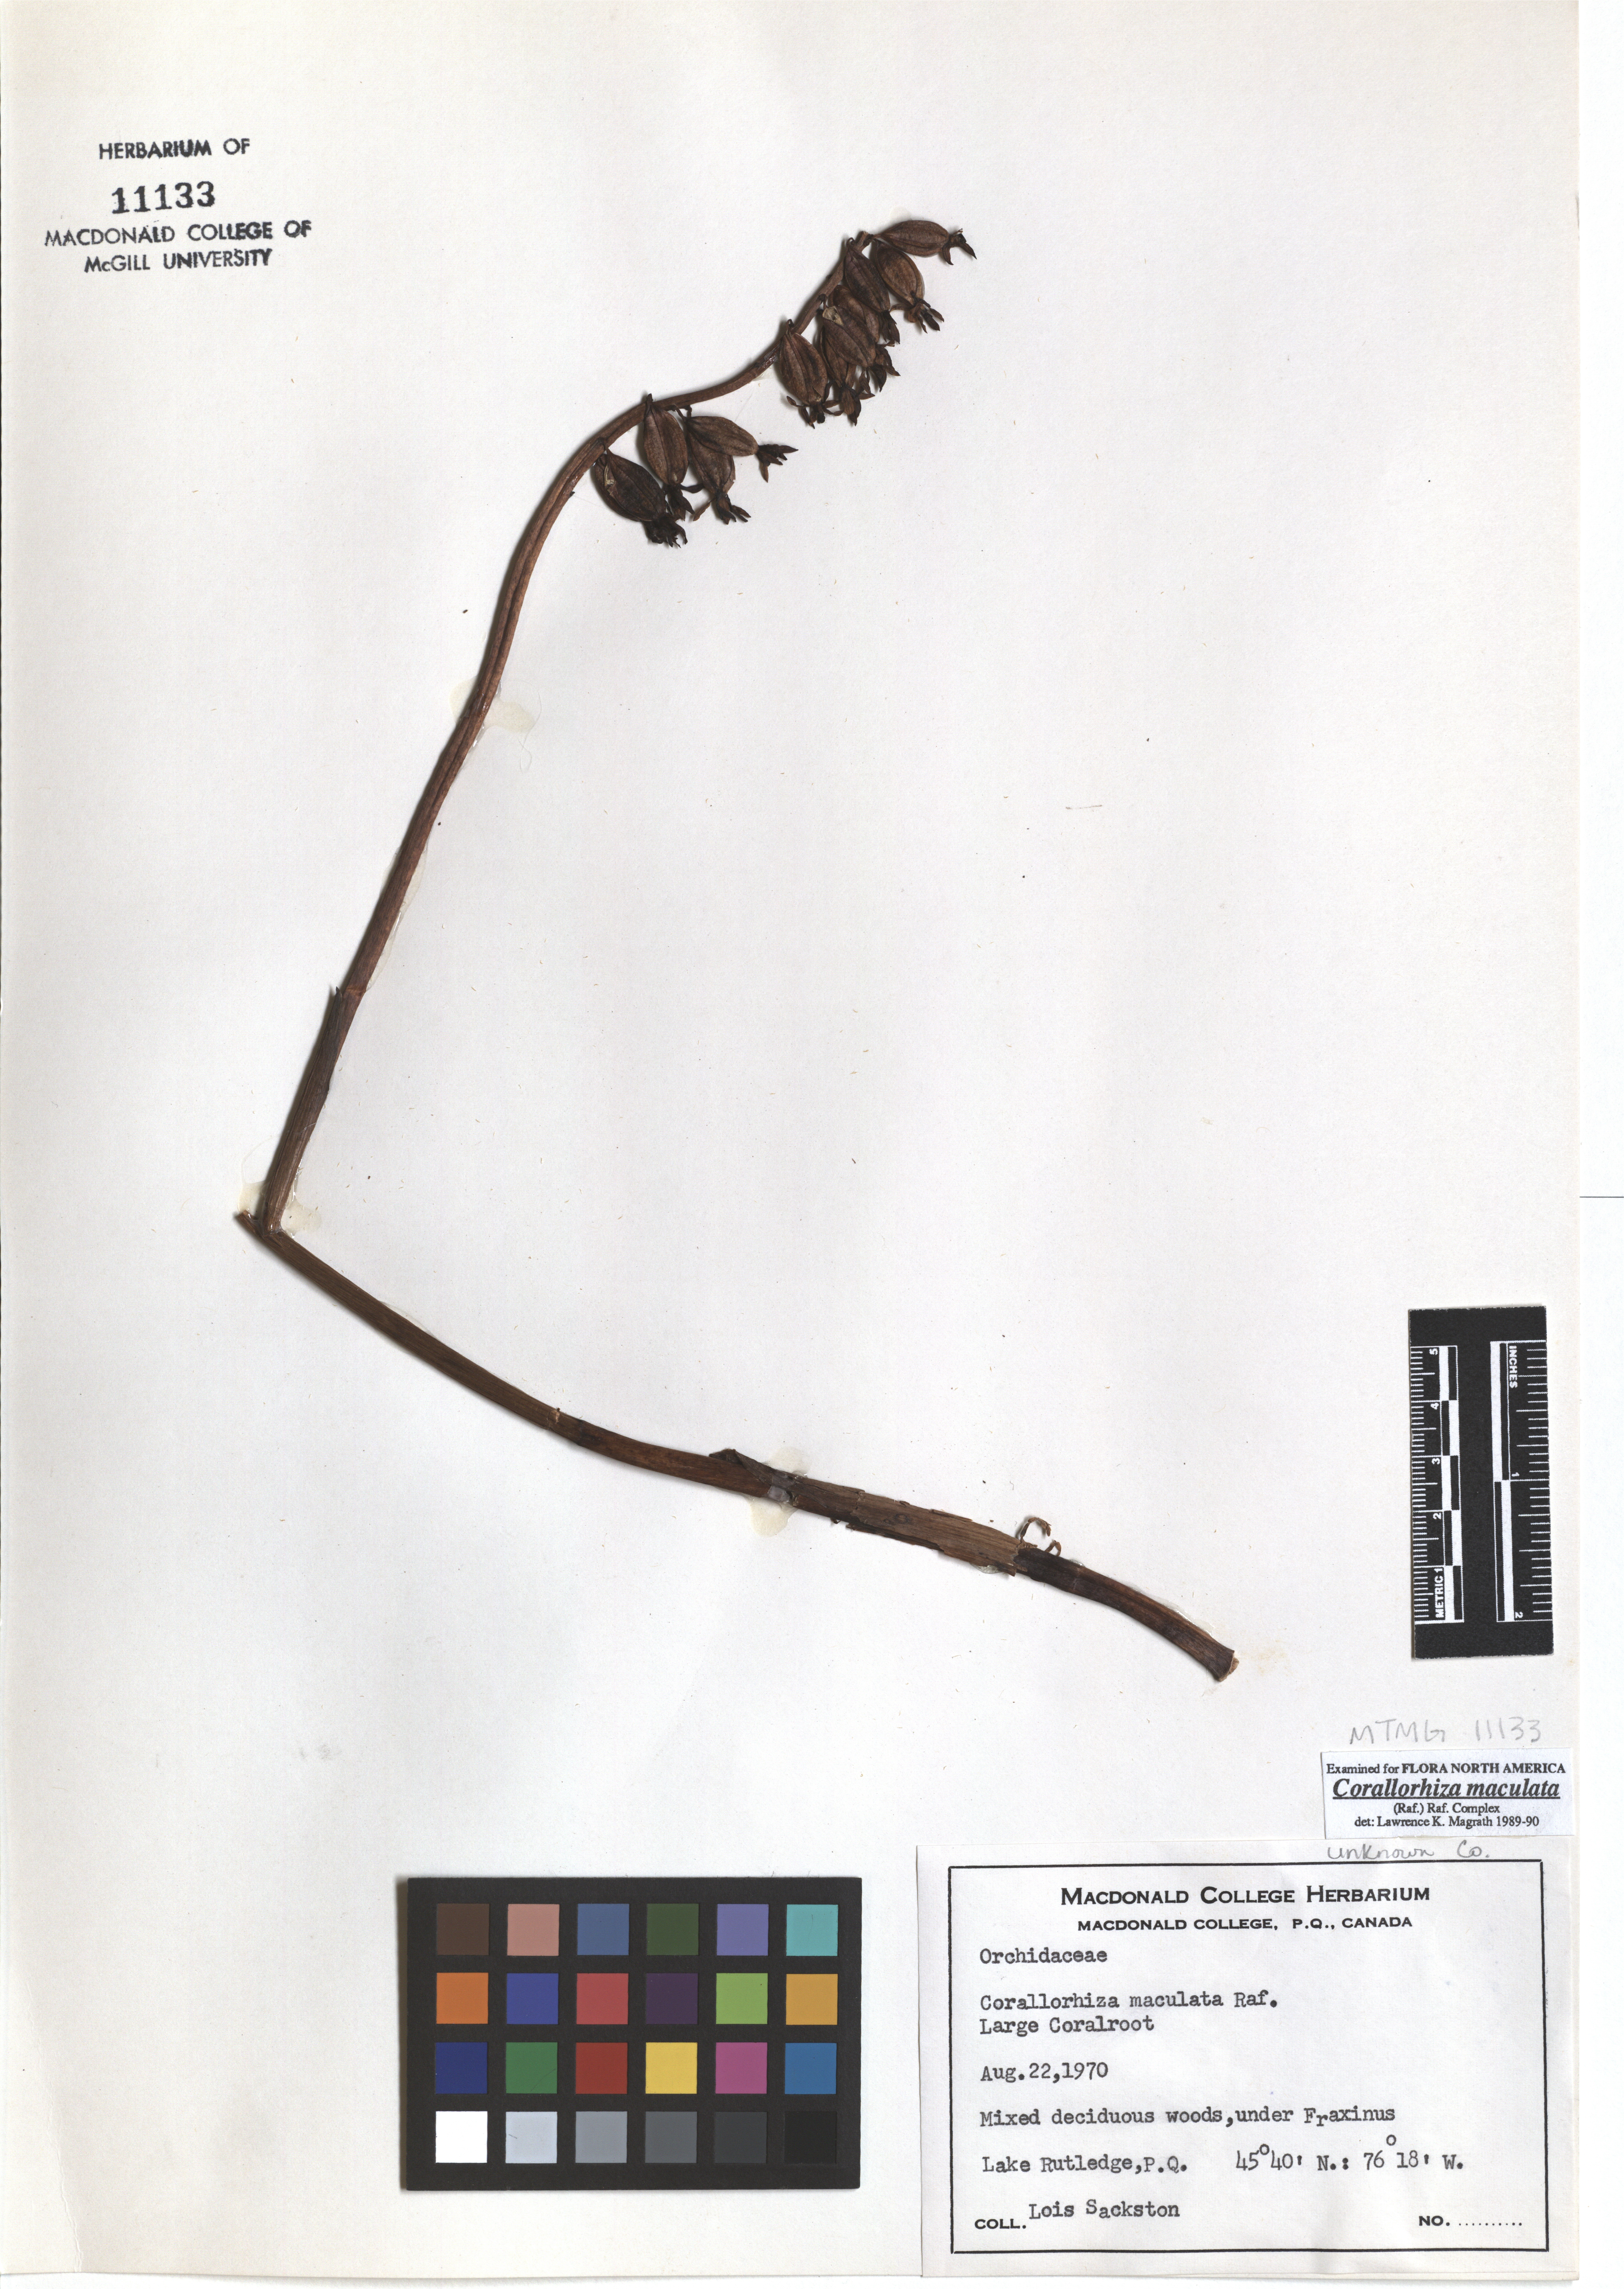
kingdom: Plantae
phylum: Tracheophyta
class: Liliopsida
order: Asparagales
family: Orchidaceae
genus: Corallorhiza
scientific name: Corallorhiza maculata
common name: Spotted coralroot
